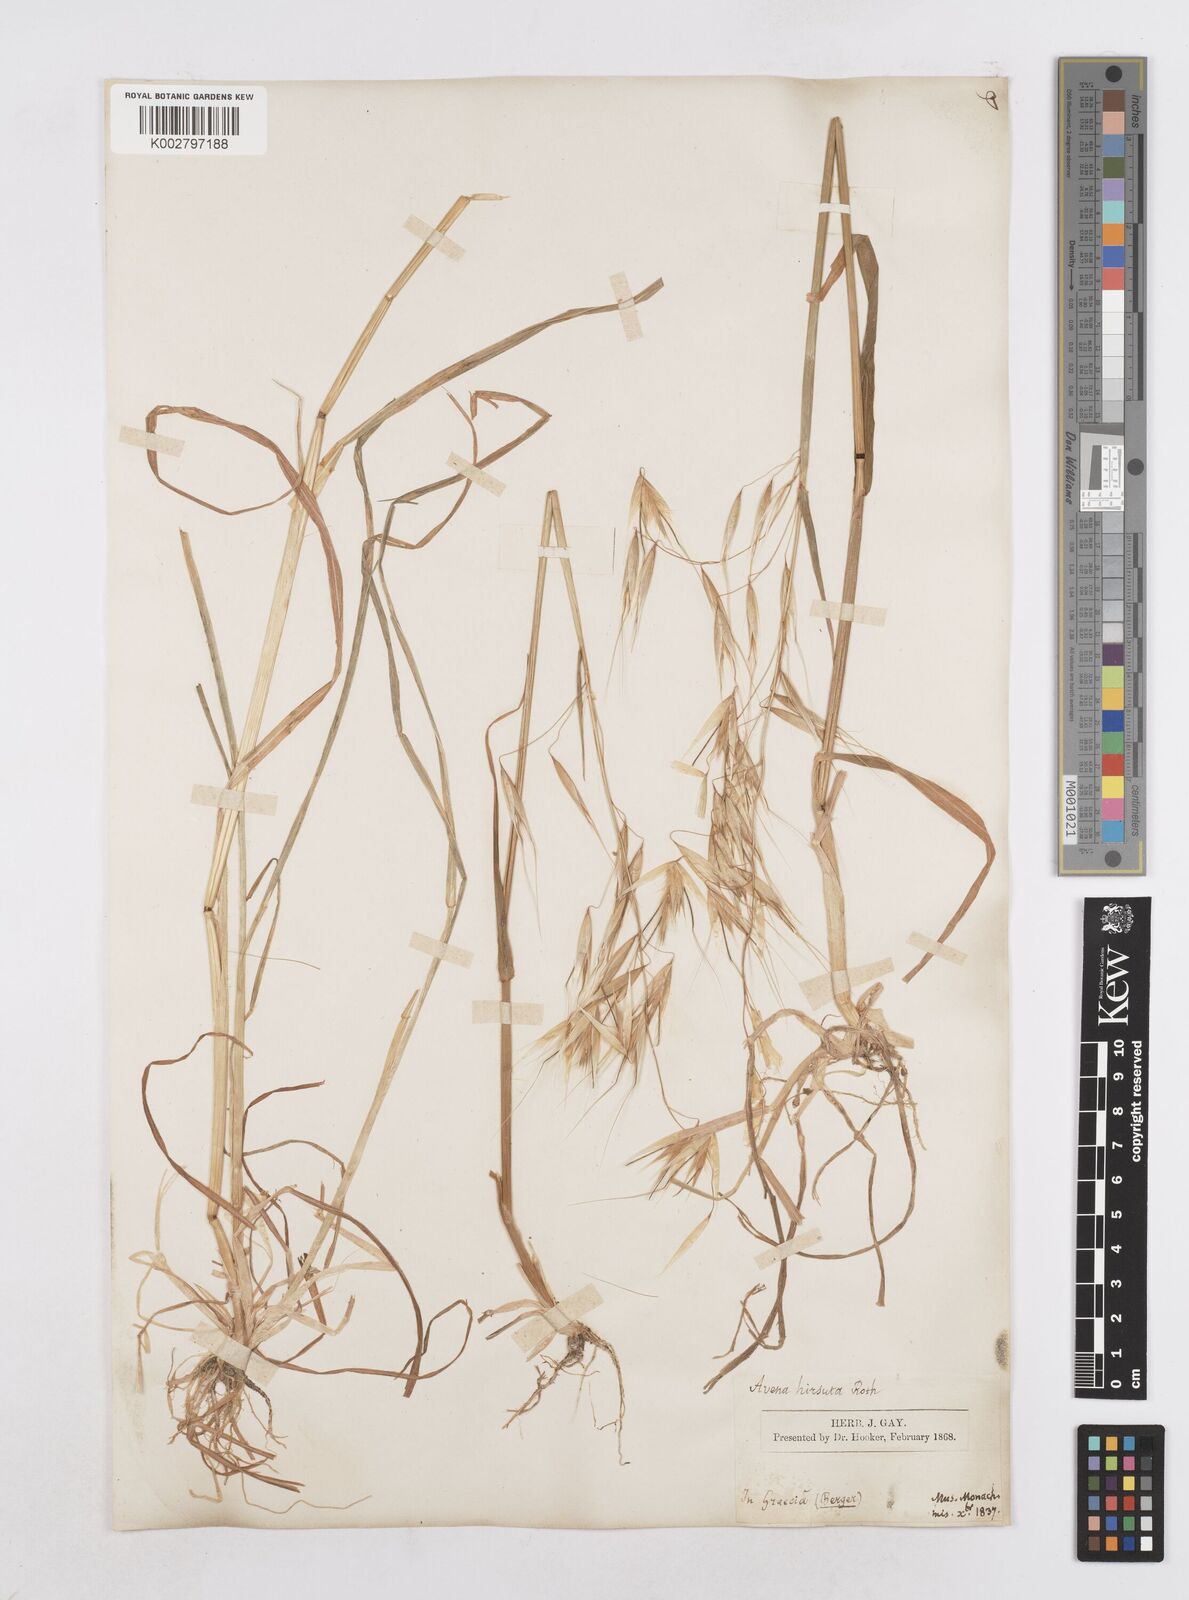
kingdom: Plantae
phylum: Tracheophyta
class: Liliopsida
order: Poales
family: Poaceae
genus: Avena
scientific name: Avena
